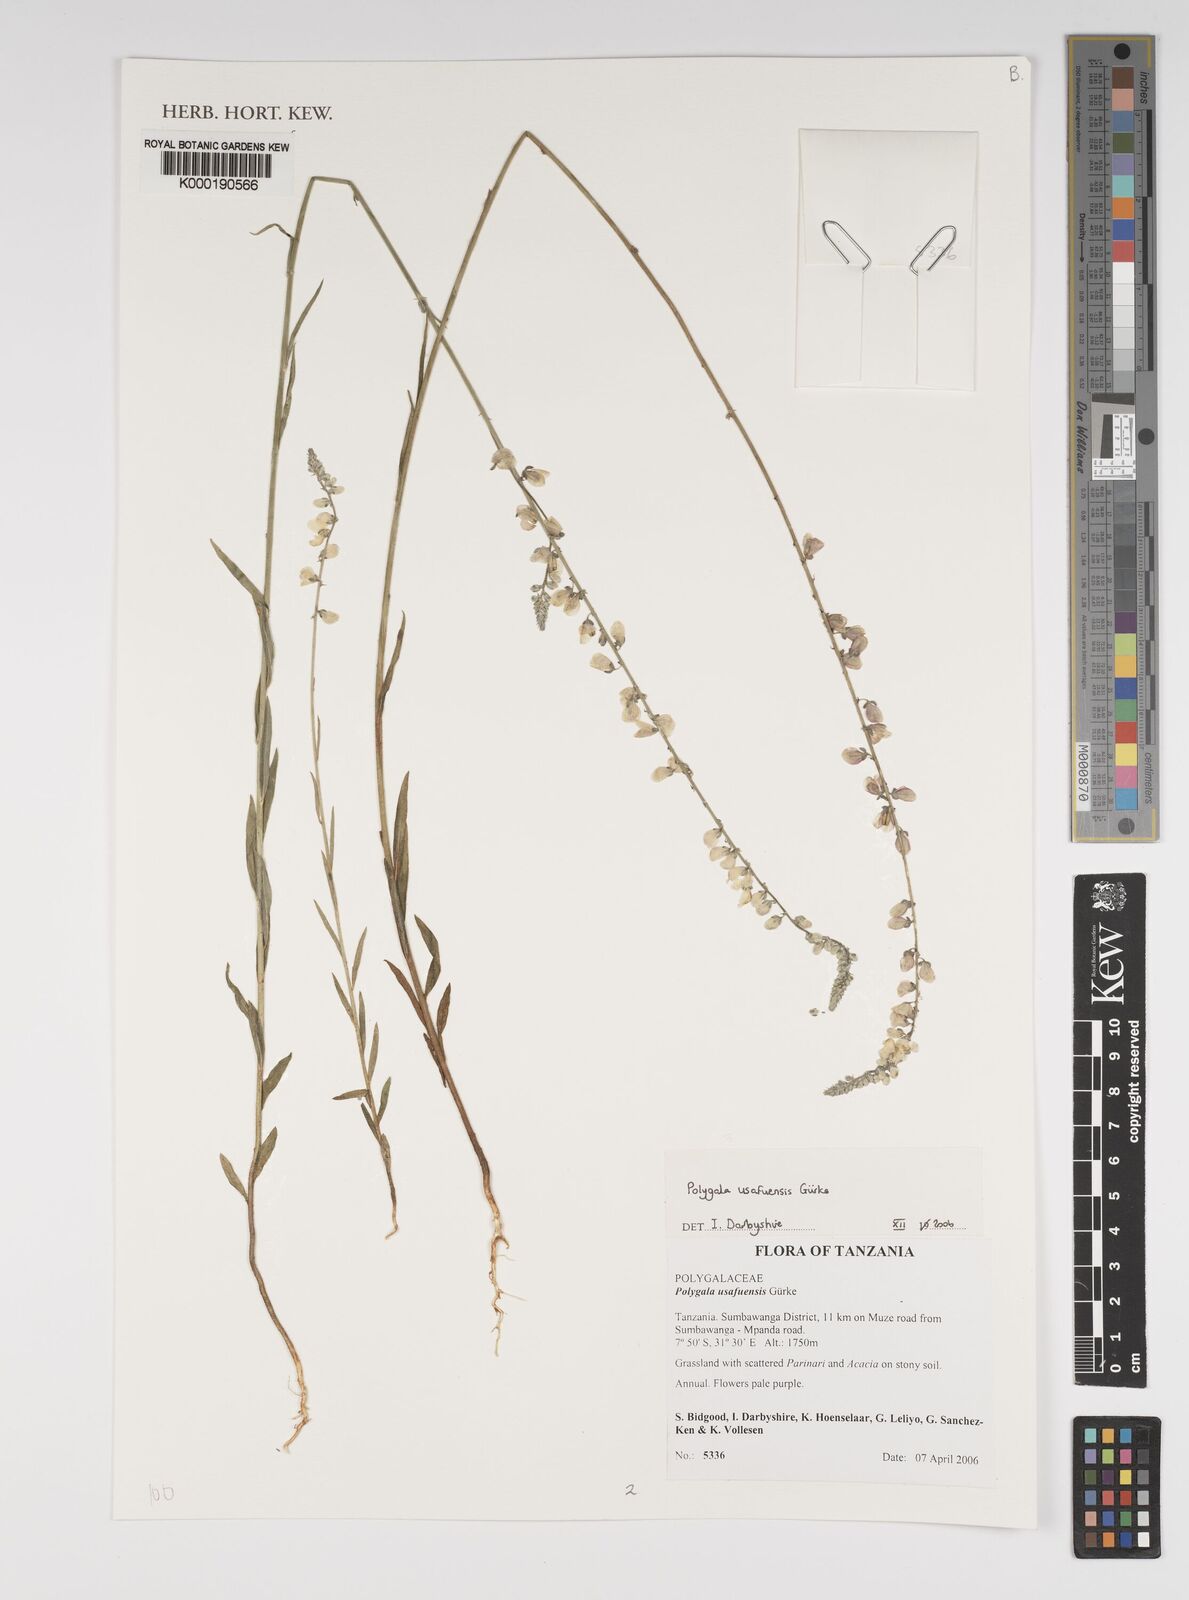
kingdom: Plantae
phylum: Tracheophyta
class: Magnoliopsida
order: Fabales
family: Polygalaceae
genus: Polygala
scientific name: Polygala
